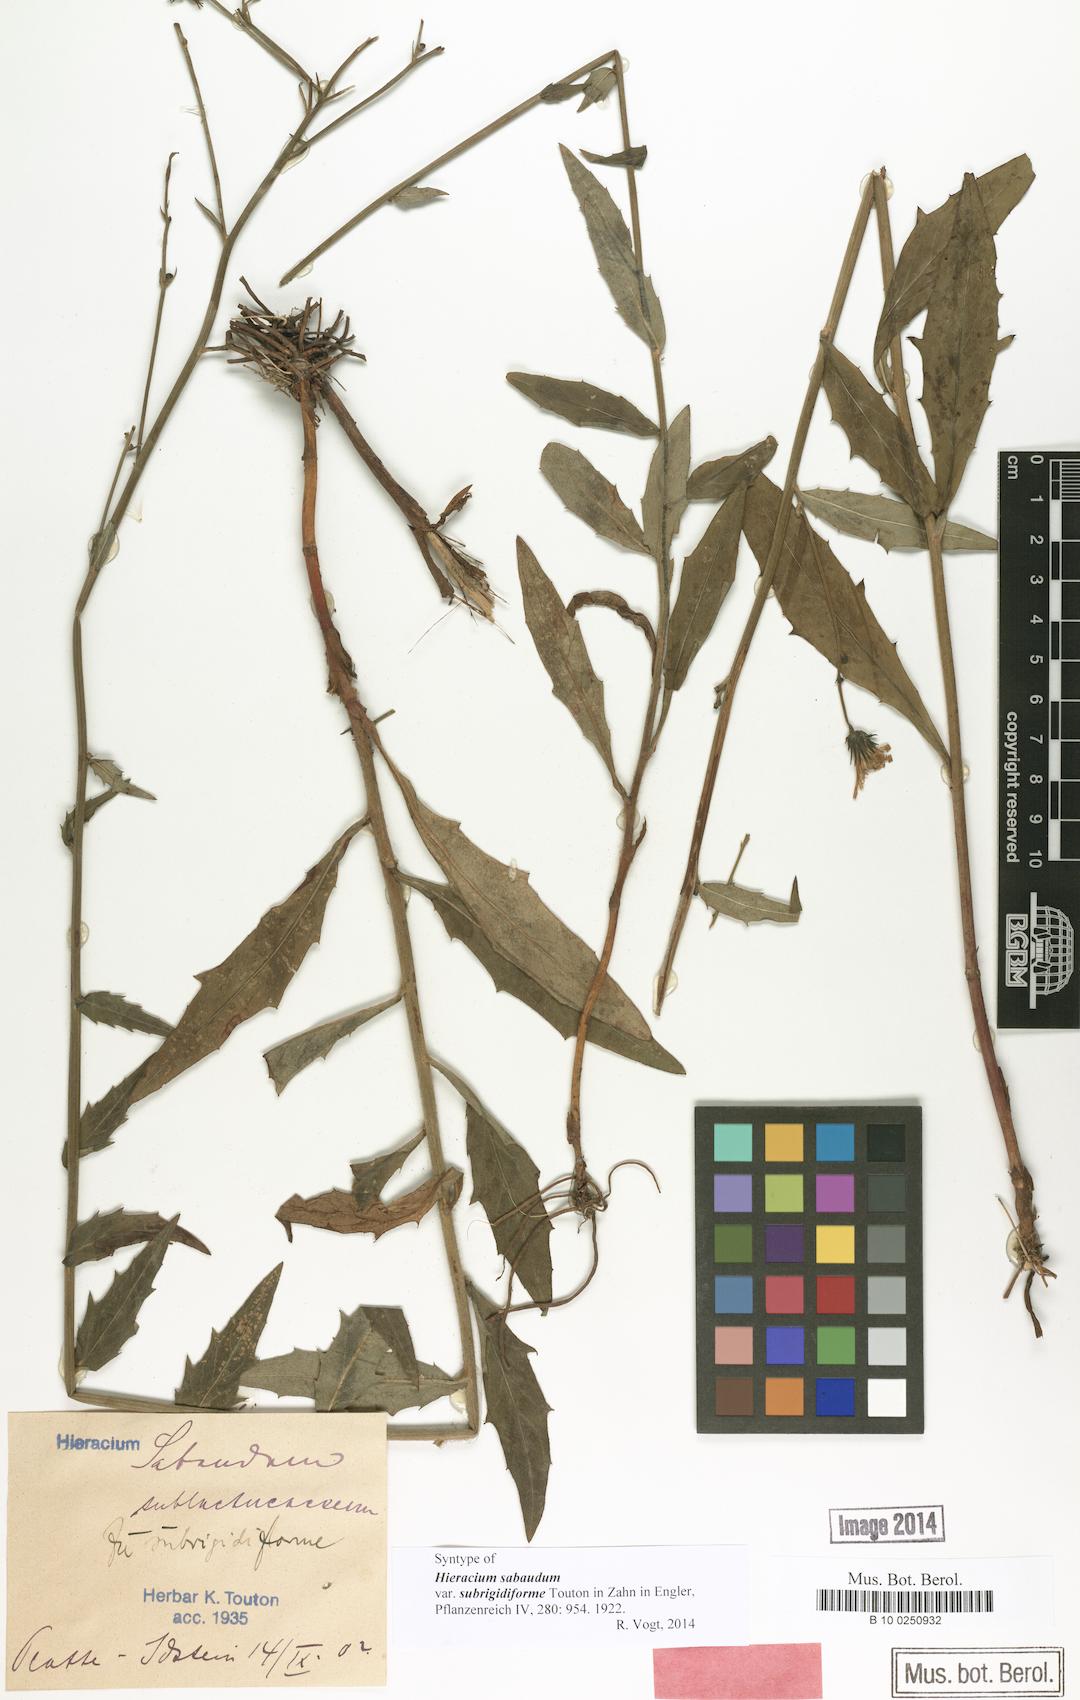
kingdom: Plantae
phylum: Tracheophyta
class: Magnoliopsida
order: Asterales
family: Asteraceae
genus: Hieracium
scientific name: Hieracium sabaudum
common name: New england hawkweed
